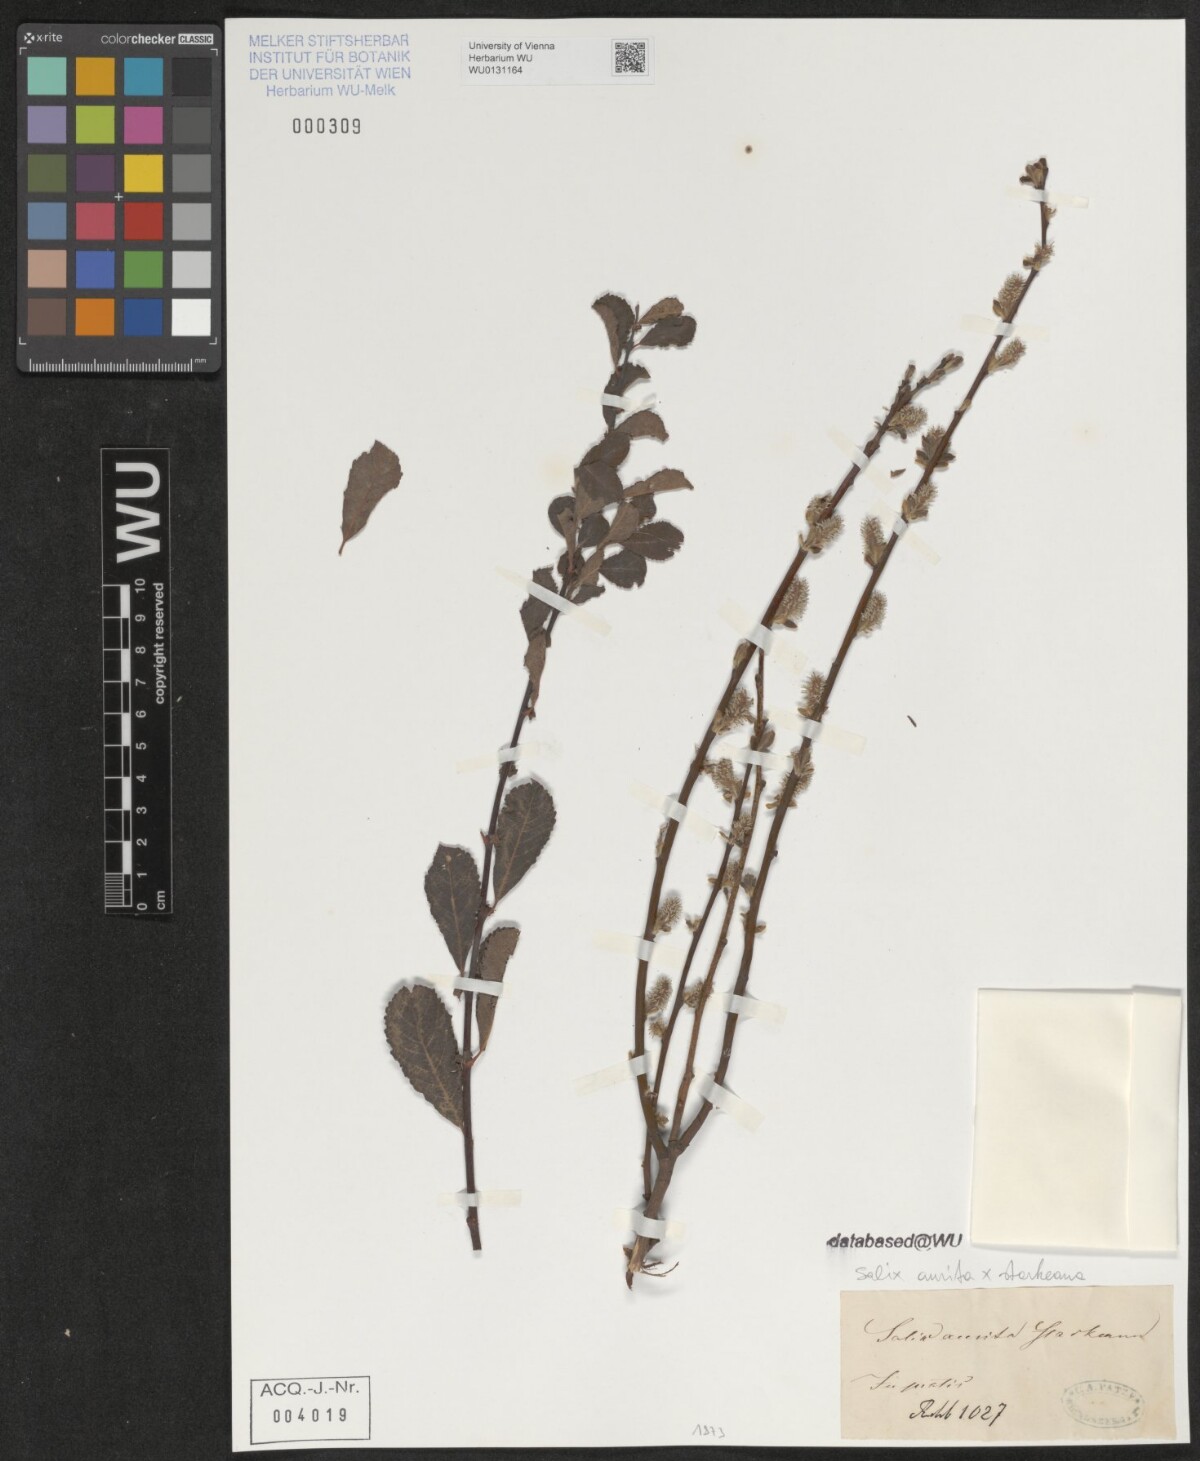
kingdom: Plantae
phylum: Tracheophyta
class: Magnoliopsida
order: Malpighiales
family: Salicaceae
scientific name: Salicaceae
